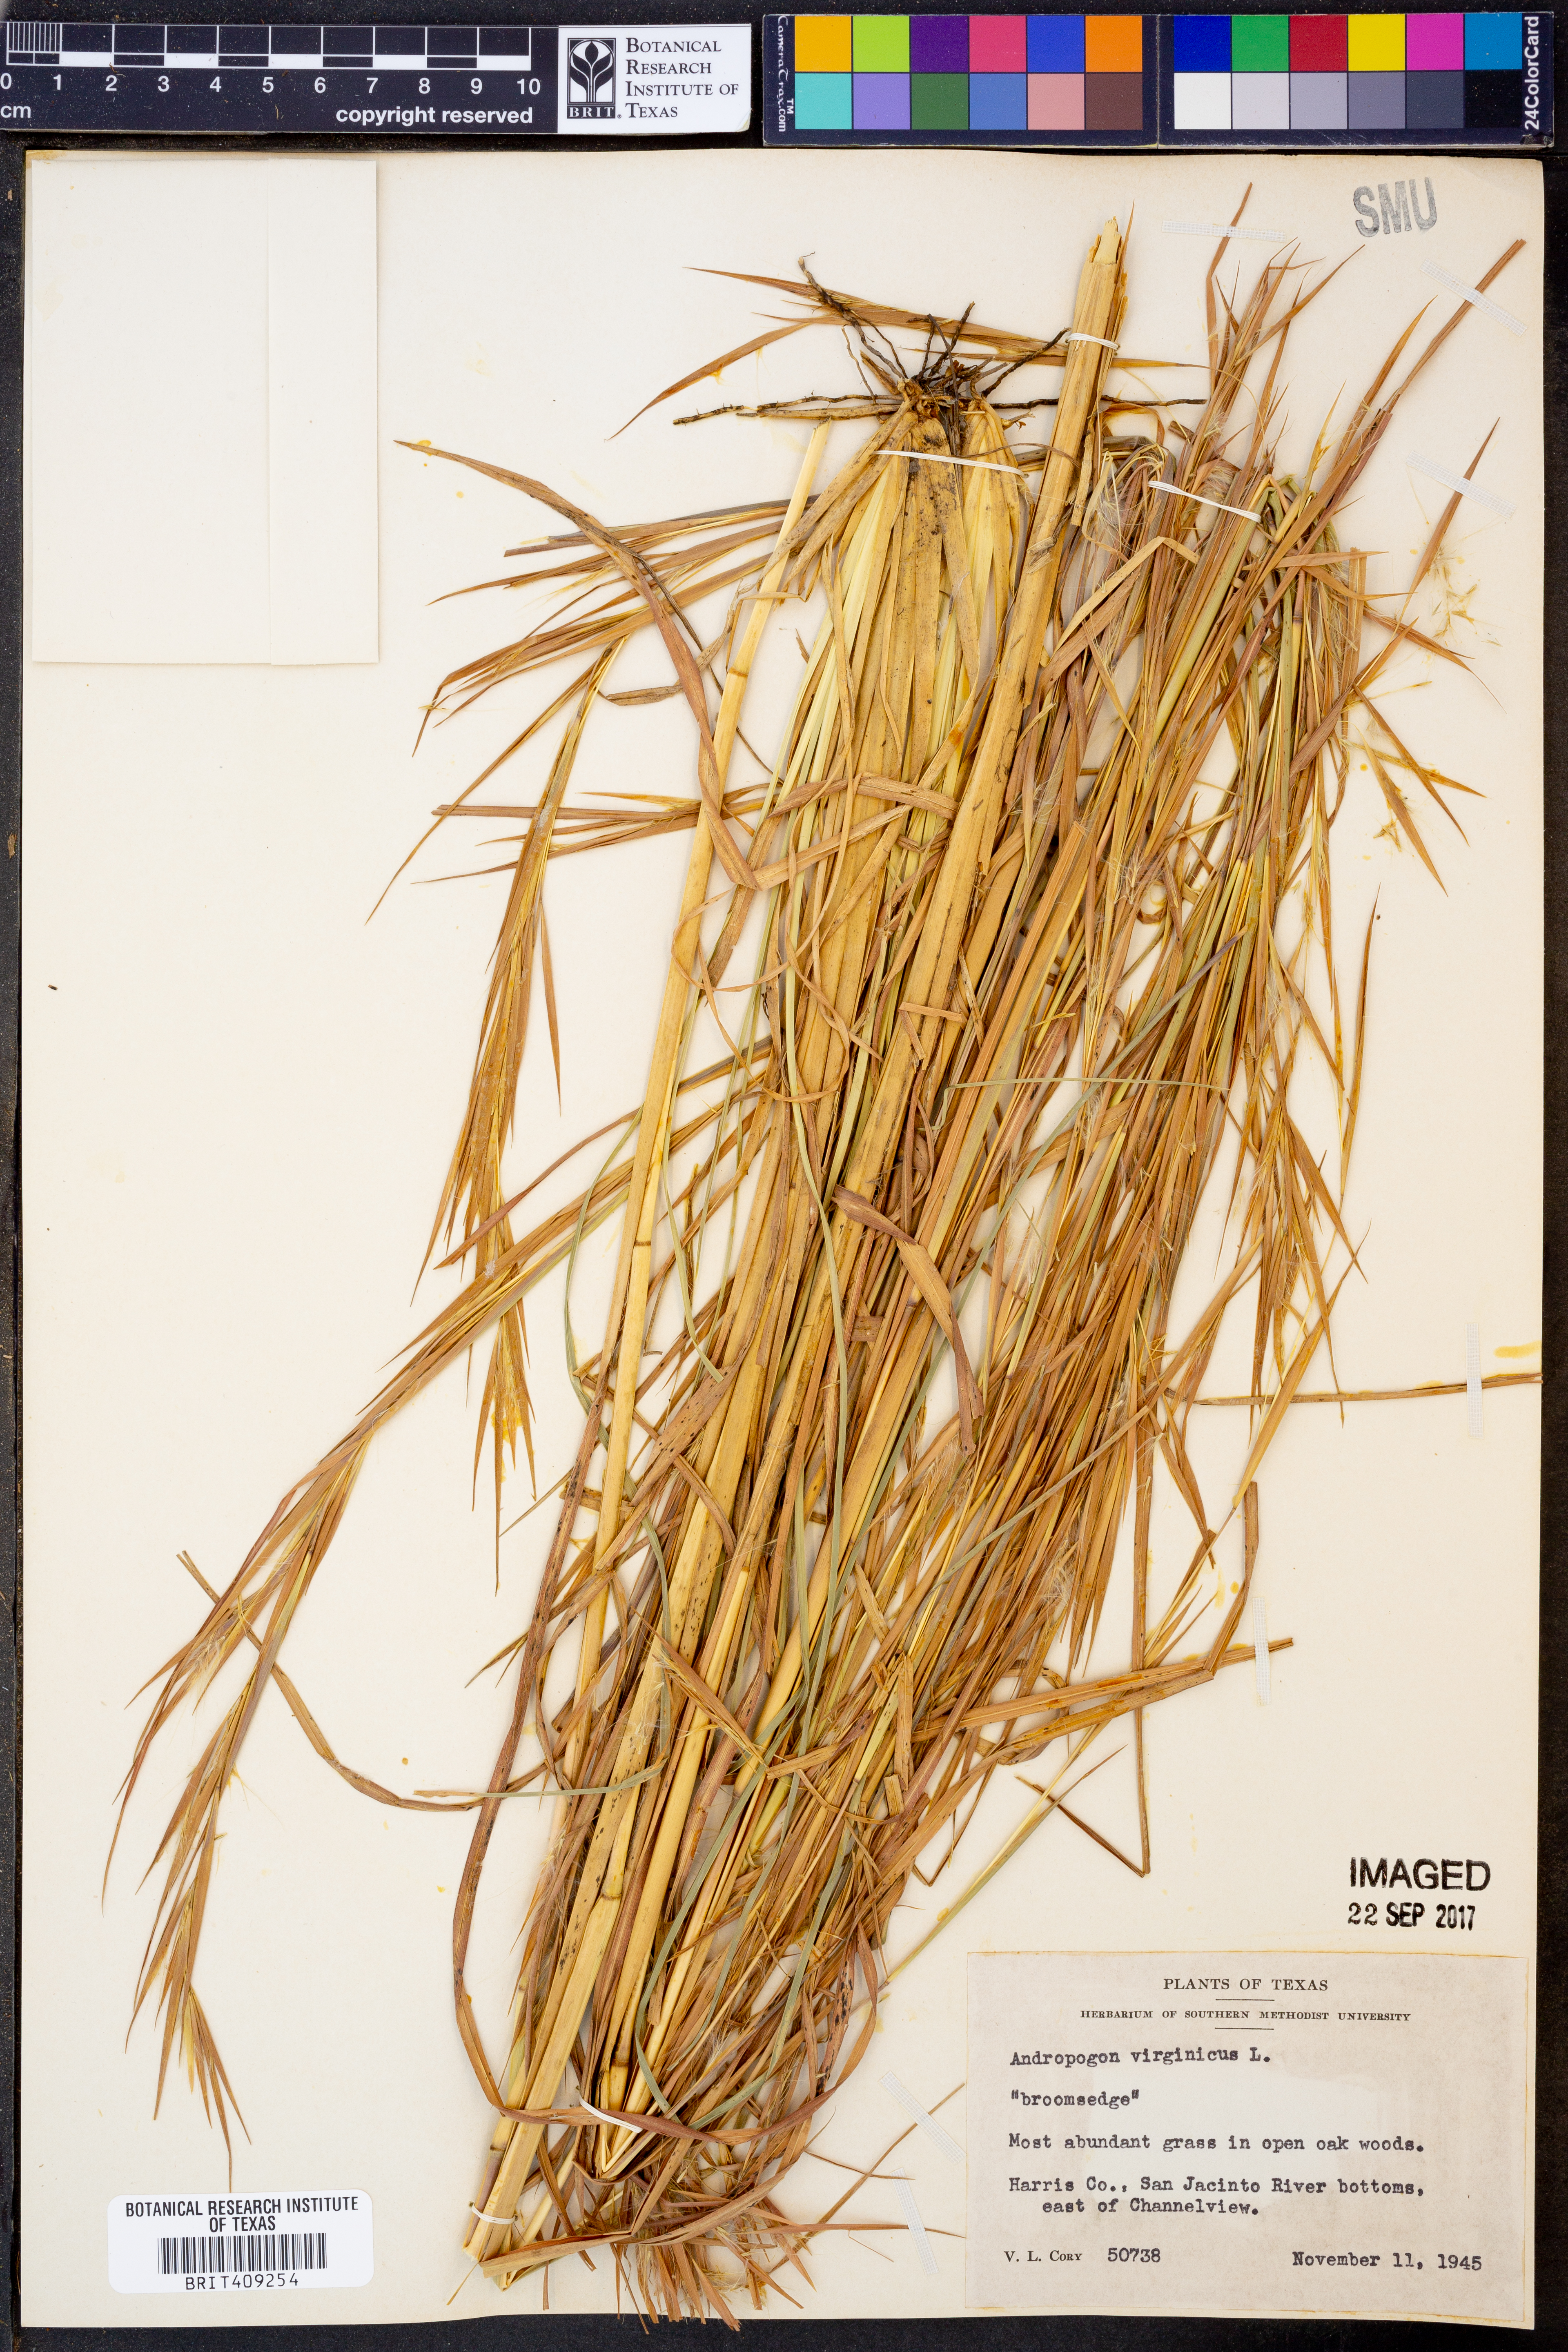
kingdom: Plantae
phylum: Tracheophyta
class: Liliopsida
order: Poales
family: Poaceae
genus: Andropogon
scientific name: Andropogon virginicus
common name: Broomsedge bluestem
